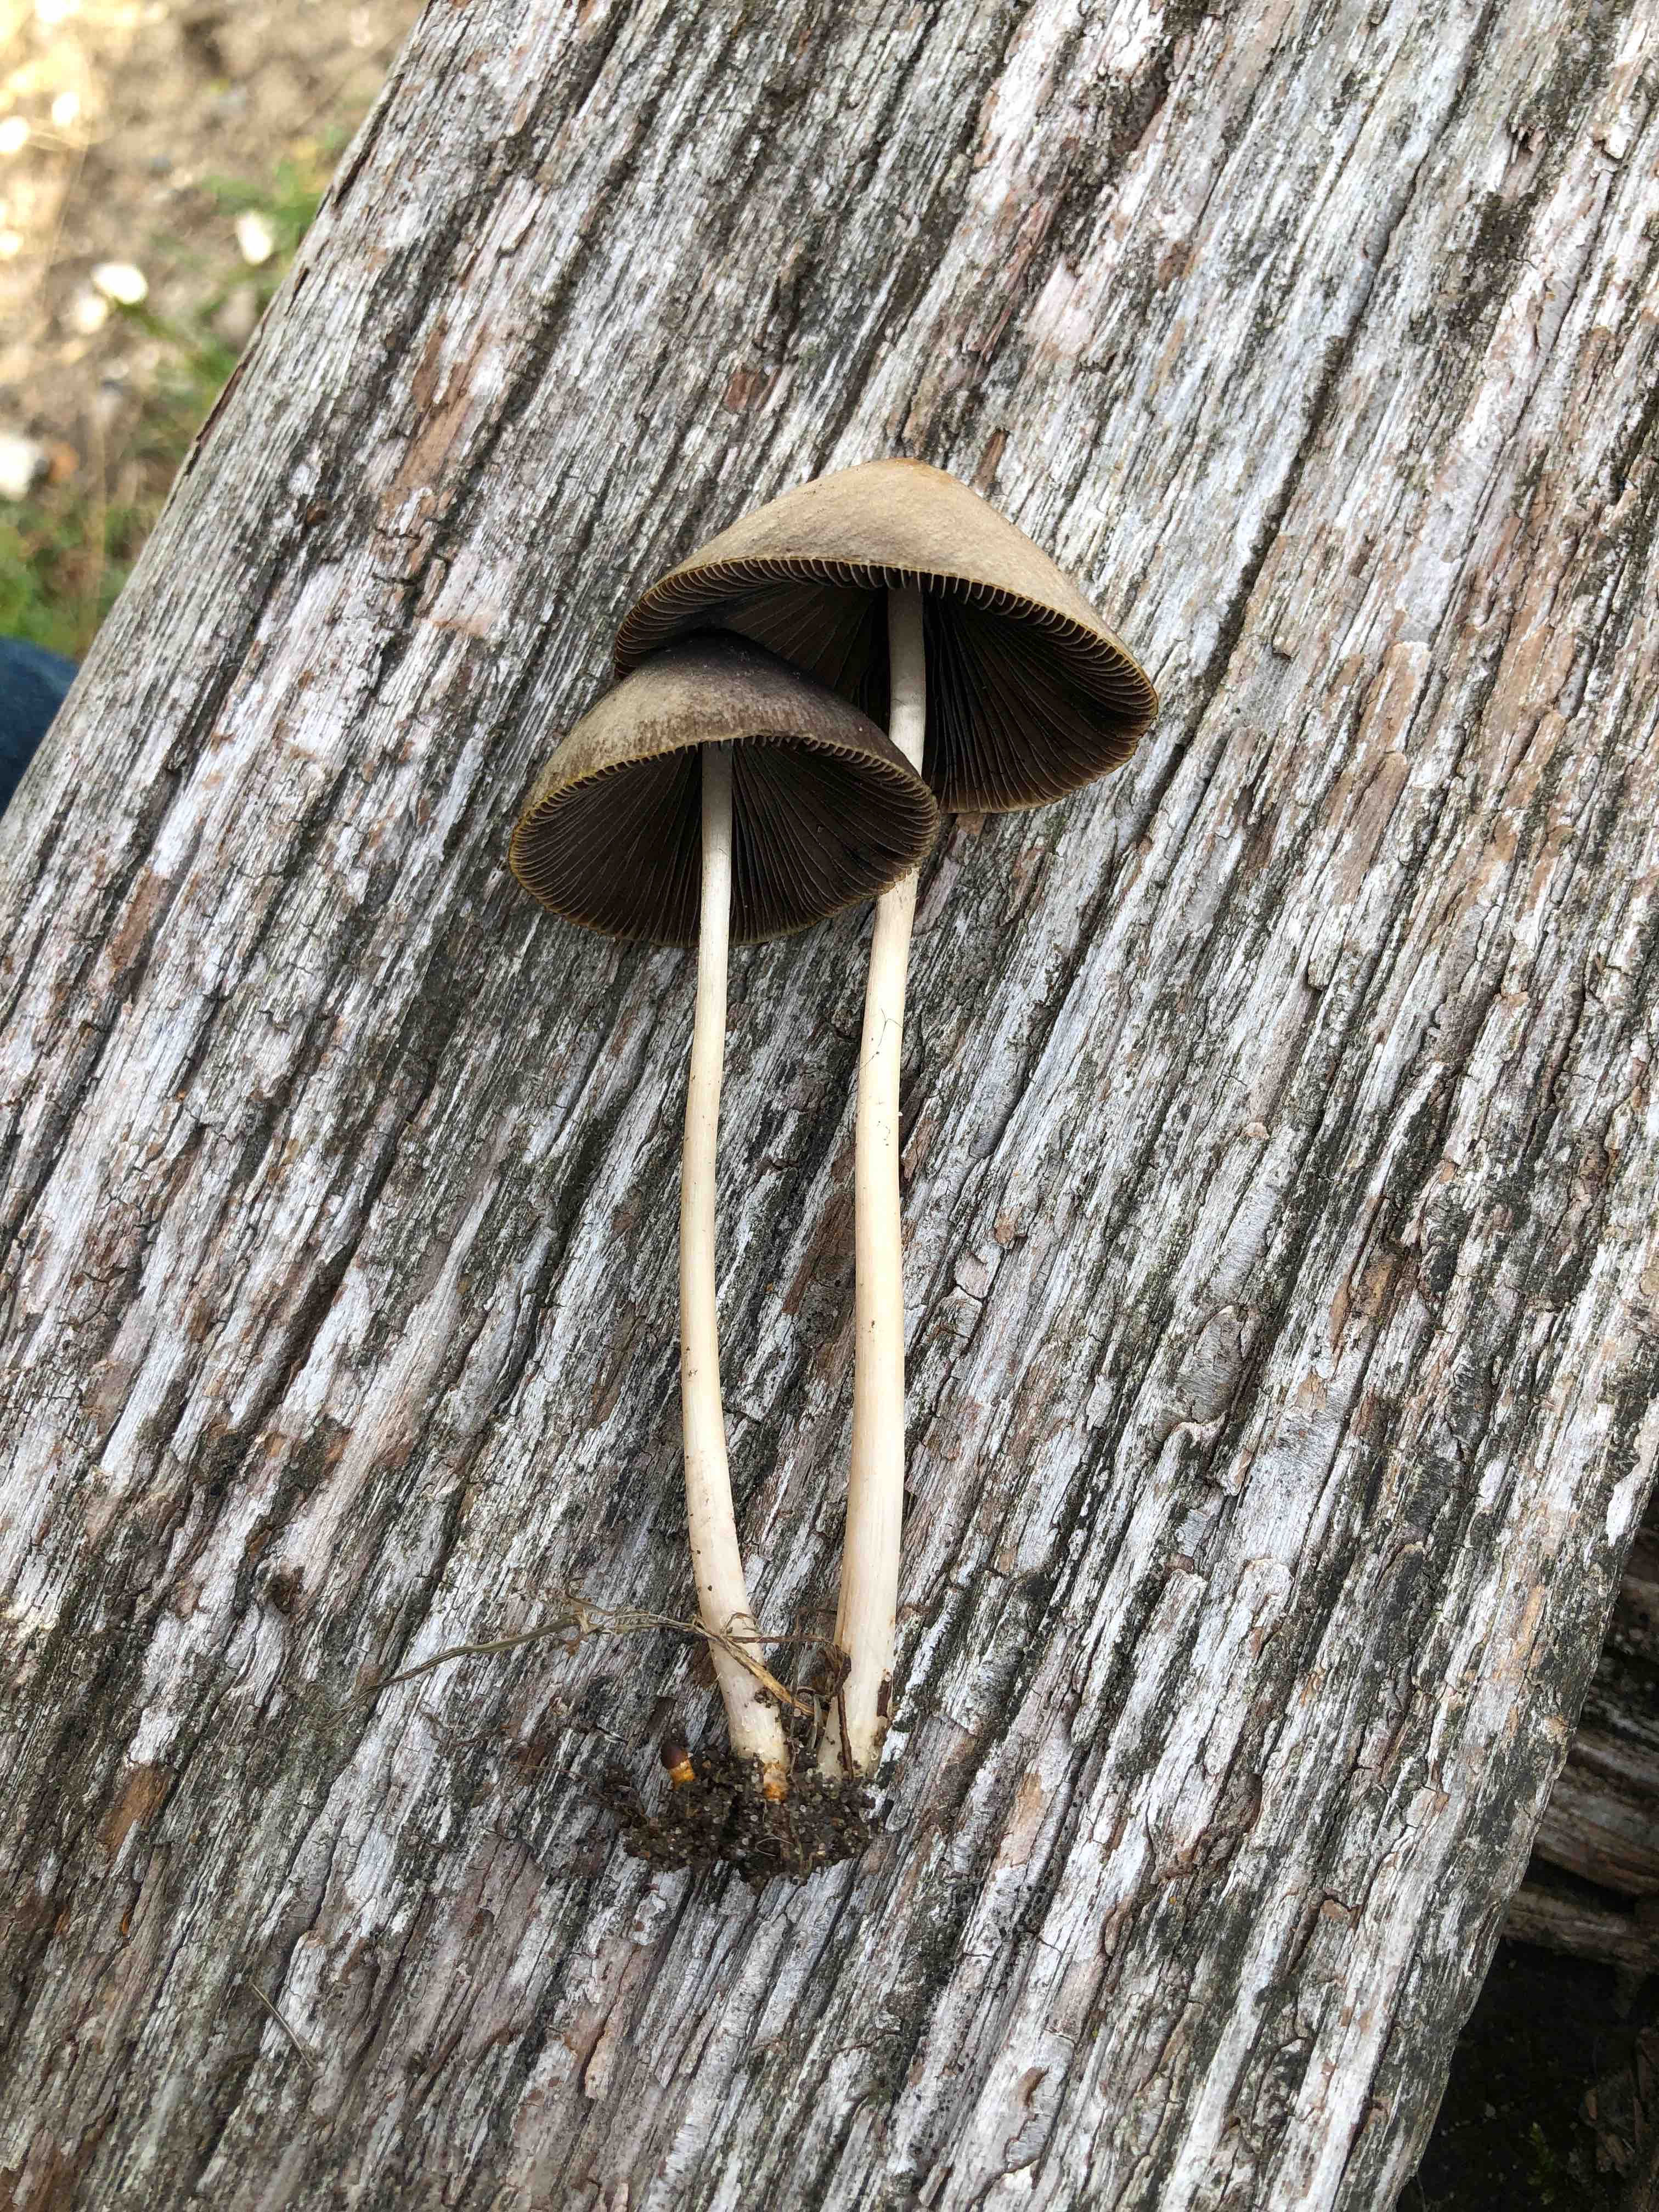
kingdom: Fungi
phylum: Basidiomycota
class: Agaricomycetes
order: Agaricales
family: Psathyrellaceae
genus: Parasola
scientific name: Parasola conopilea
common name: kegle-hjulhat
